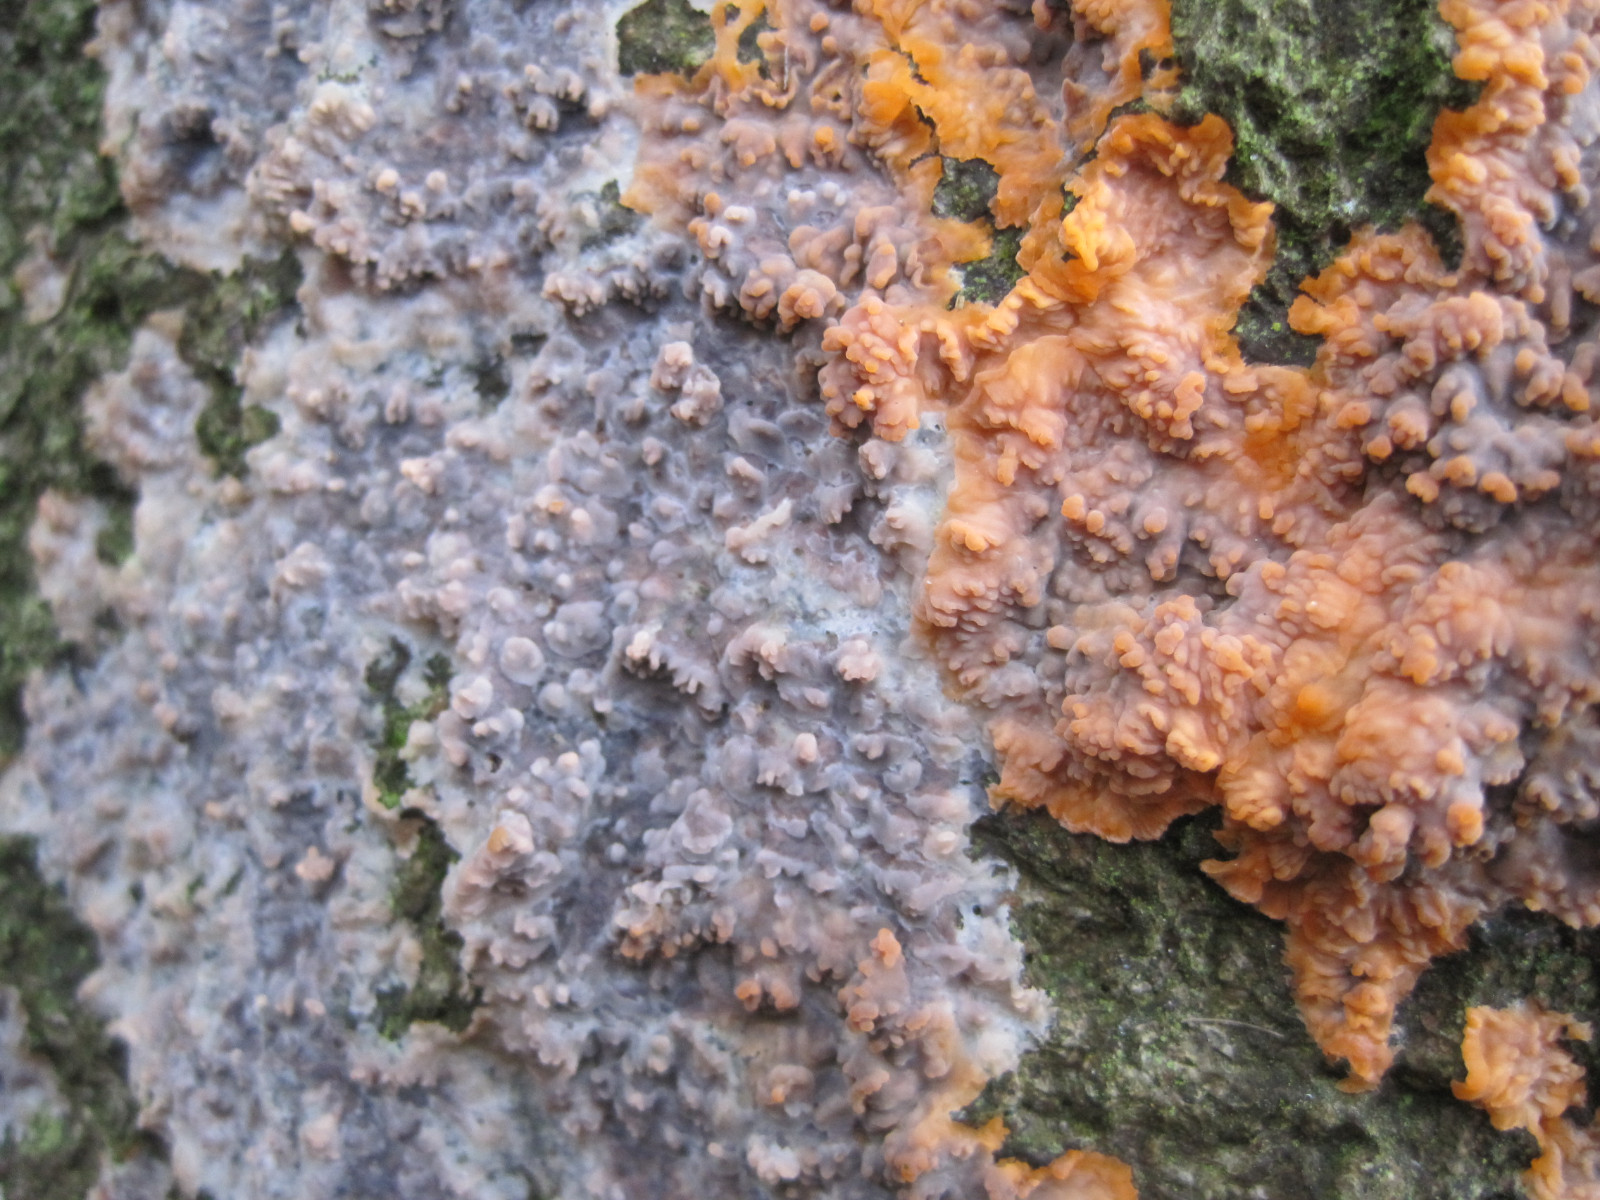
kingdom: Fungi
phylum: Basidiomycota
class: Agaricomycetes
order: Polyporales
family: Meruliaceae
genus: Phlebia
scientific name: Phlebia radiata
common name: stråle-åresvamp
